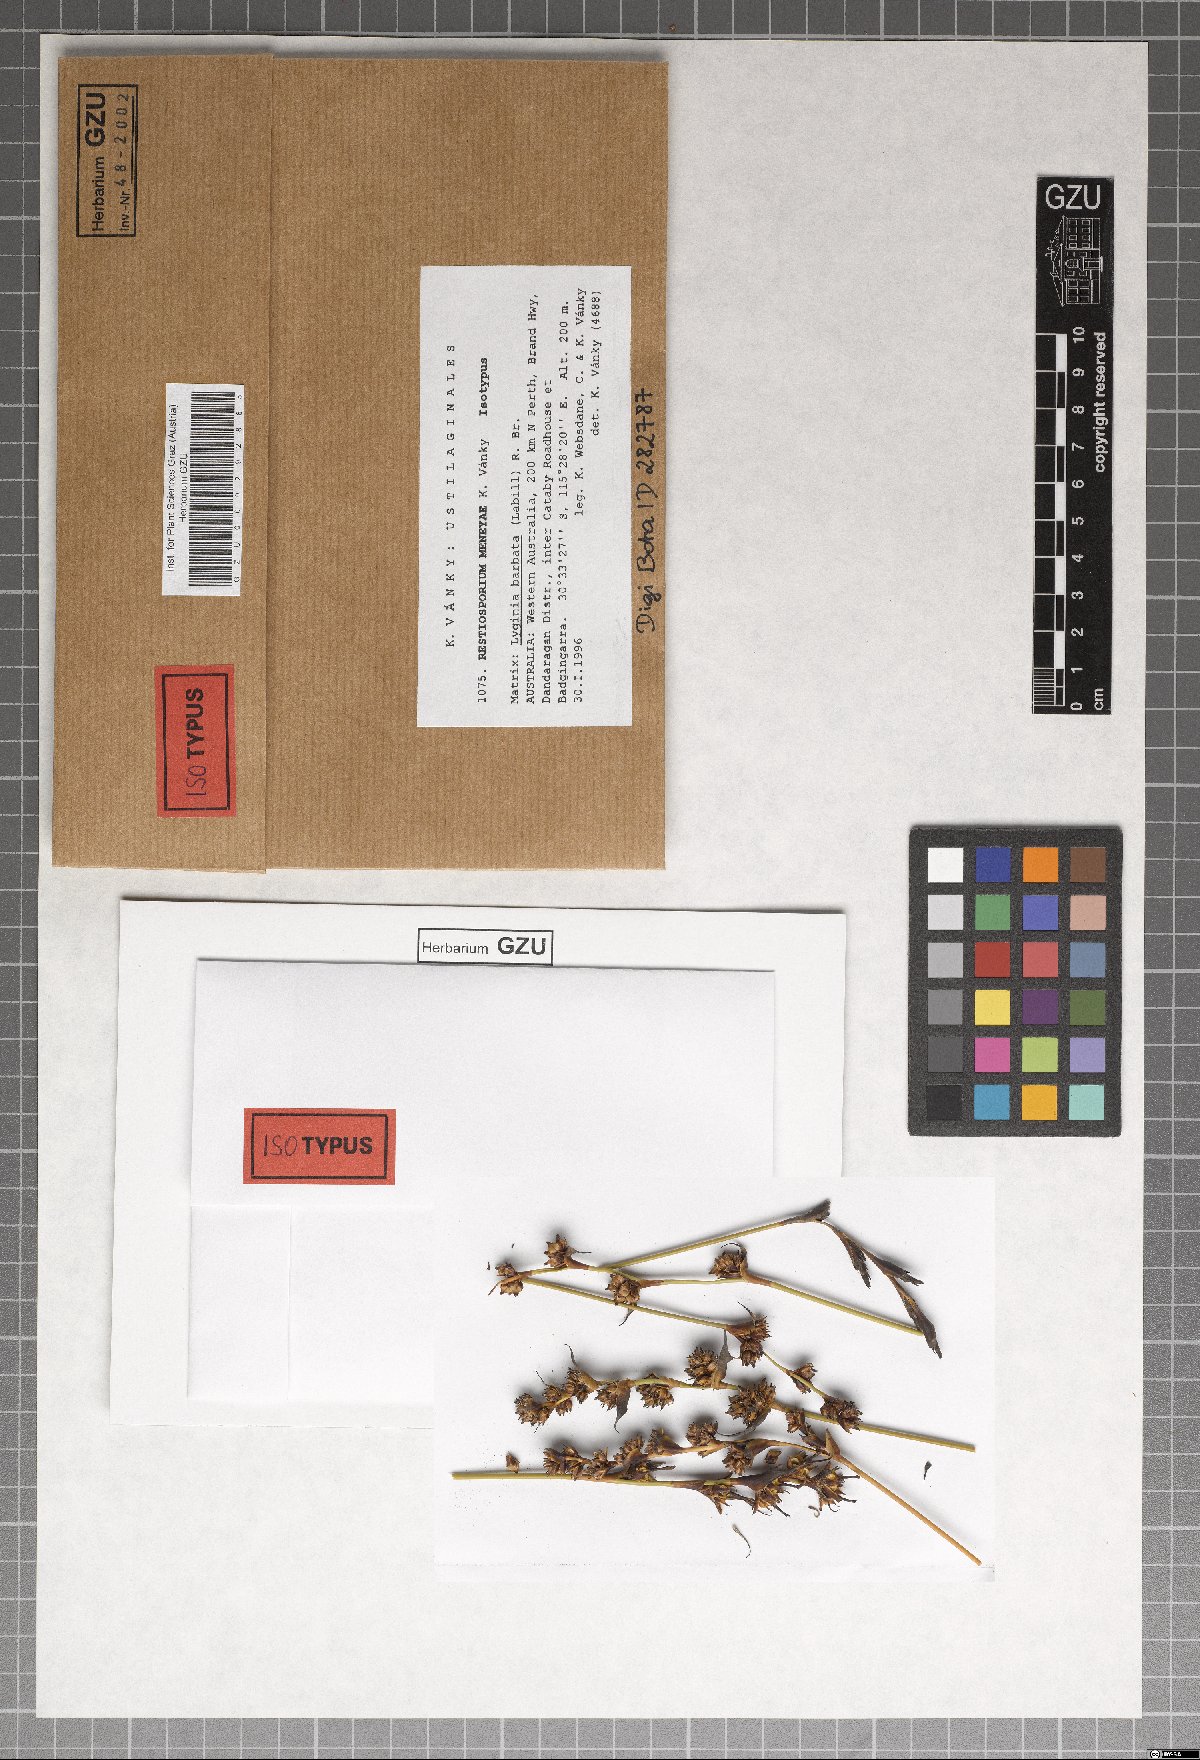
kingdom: Fungi
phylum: Basidiomycota
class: Ustilaginomycetes
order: Ustilaginales
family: Websdaneaceae
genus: Restiosporium
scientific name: Restiosporium meneyae
